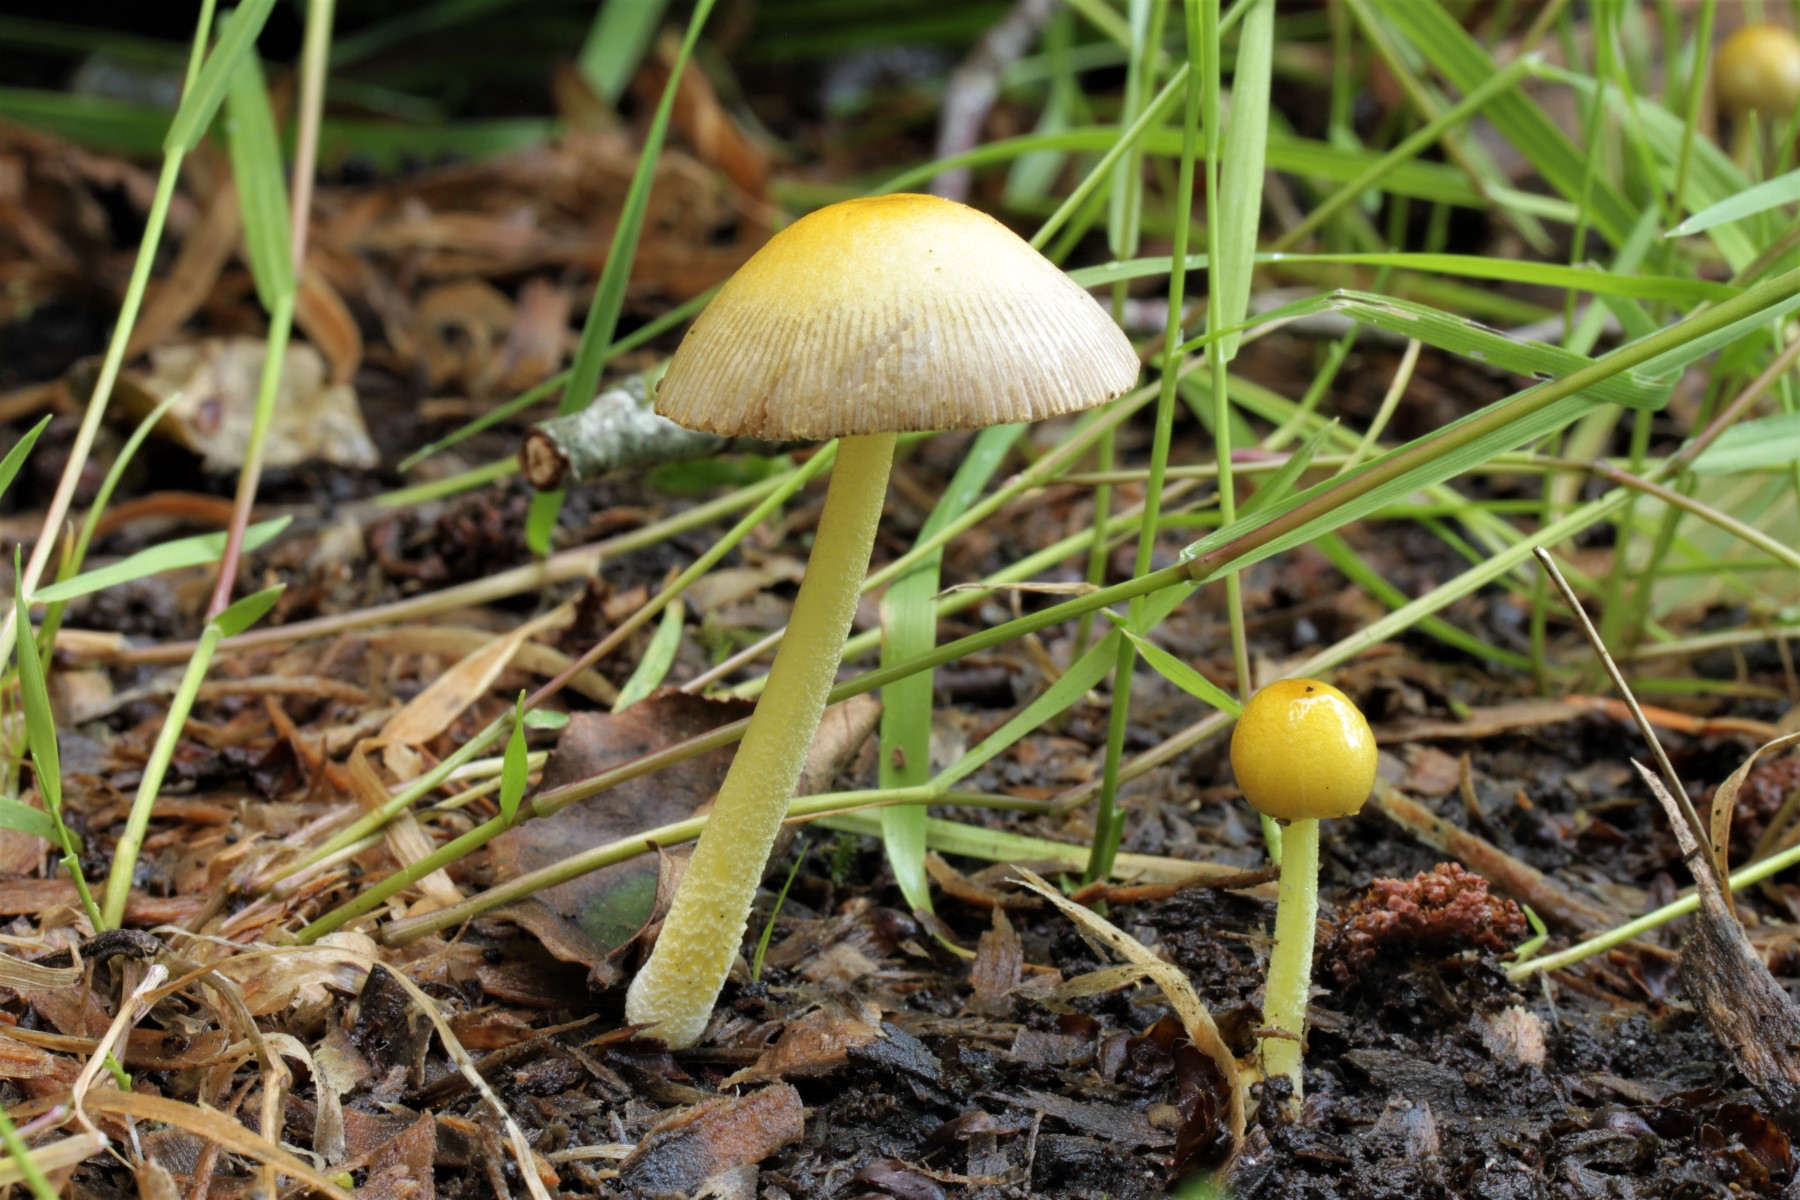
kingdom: Fungi
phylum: Basidiomycota
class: Agaricomycetes
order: Agaricales
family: Bolbitiaceae
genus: Bolbitius
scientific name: Bolbitius titubans
